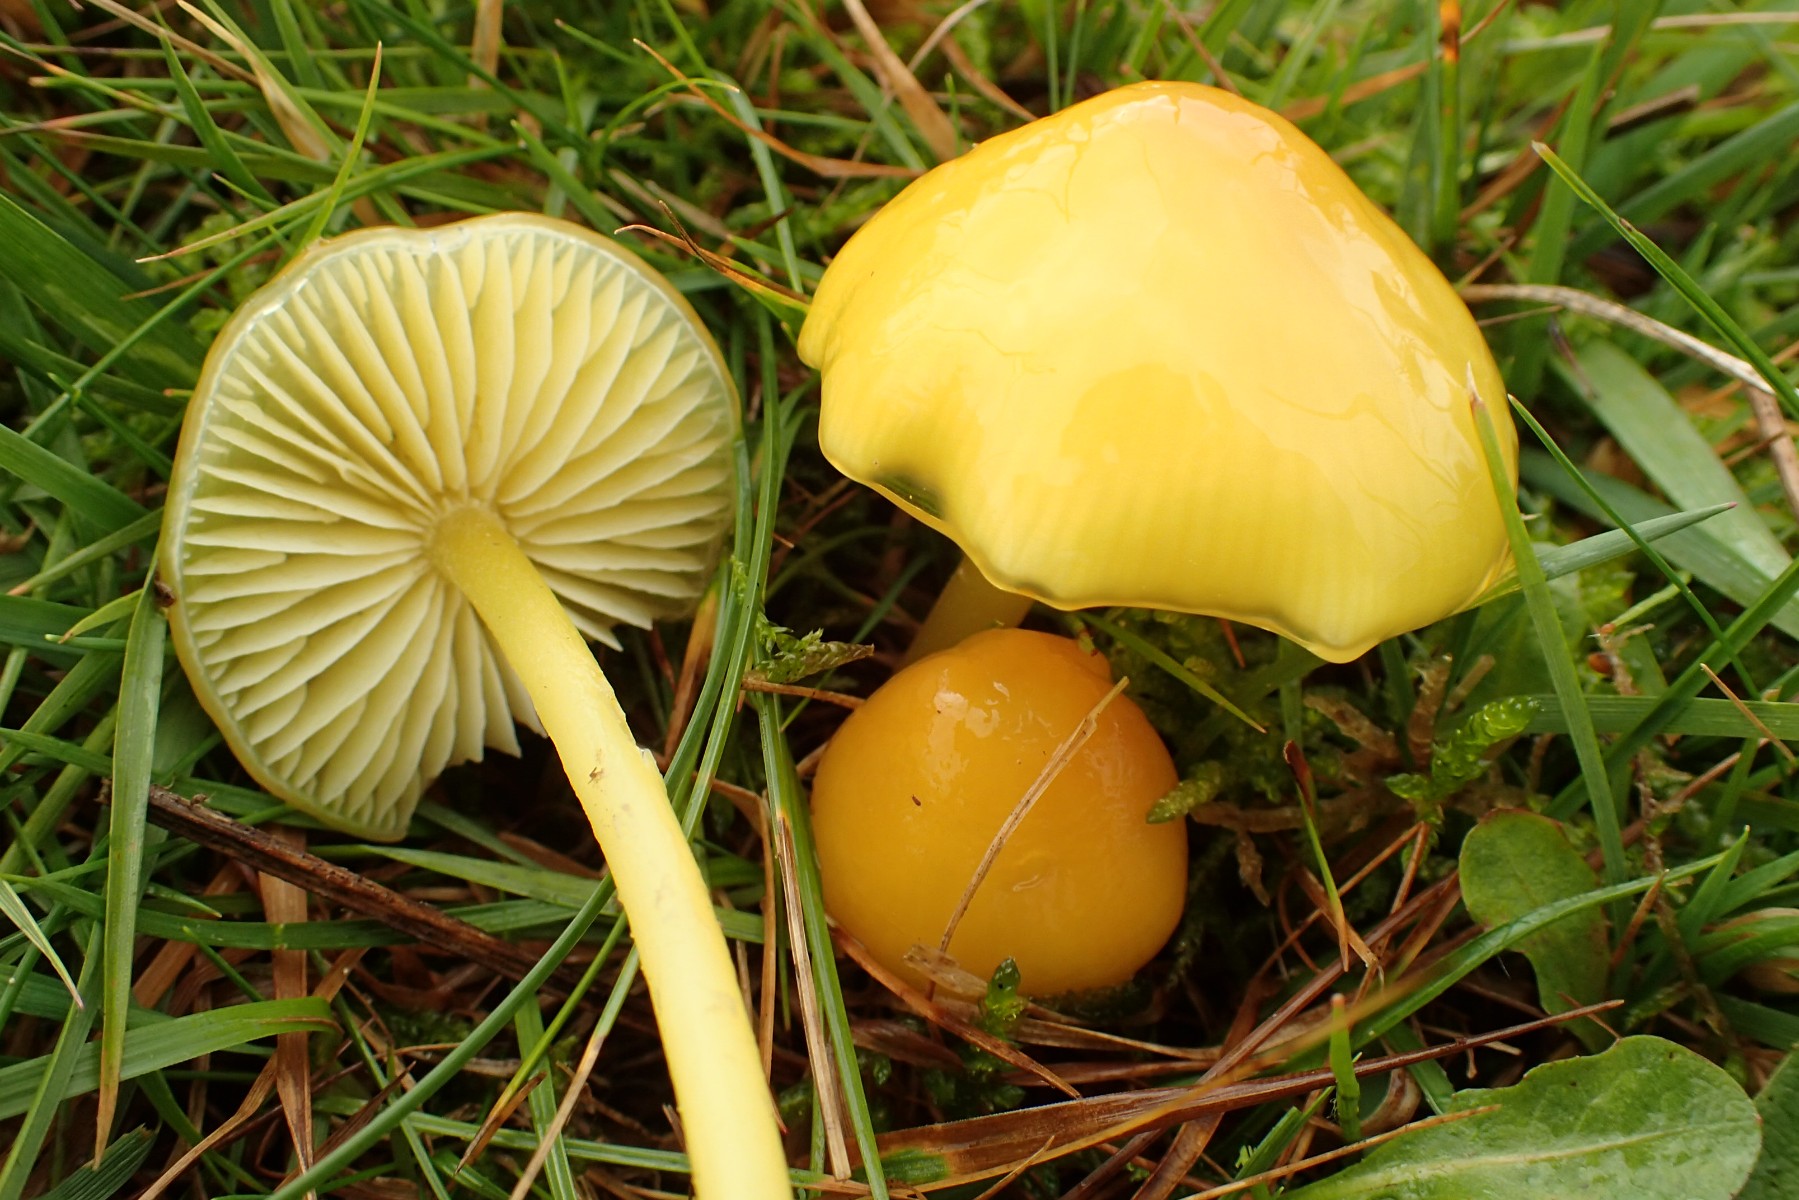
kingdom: Fungi
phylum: Basidiomycota
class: Agaricomycetes
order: Agaricales
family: Hygrophoraceae
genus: Hygrocybe
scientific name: Hygrocybe chlorophana
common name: gul vokshat
